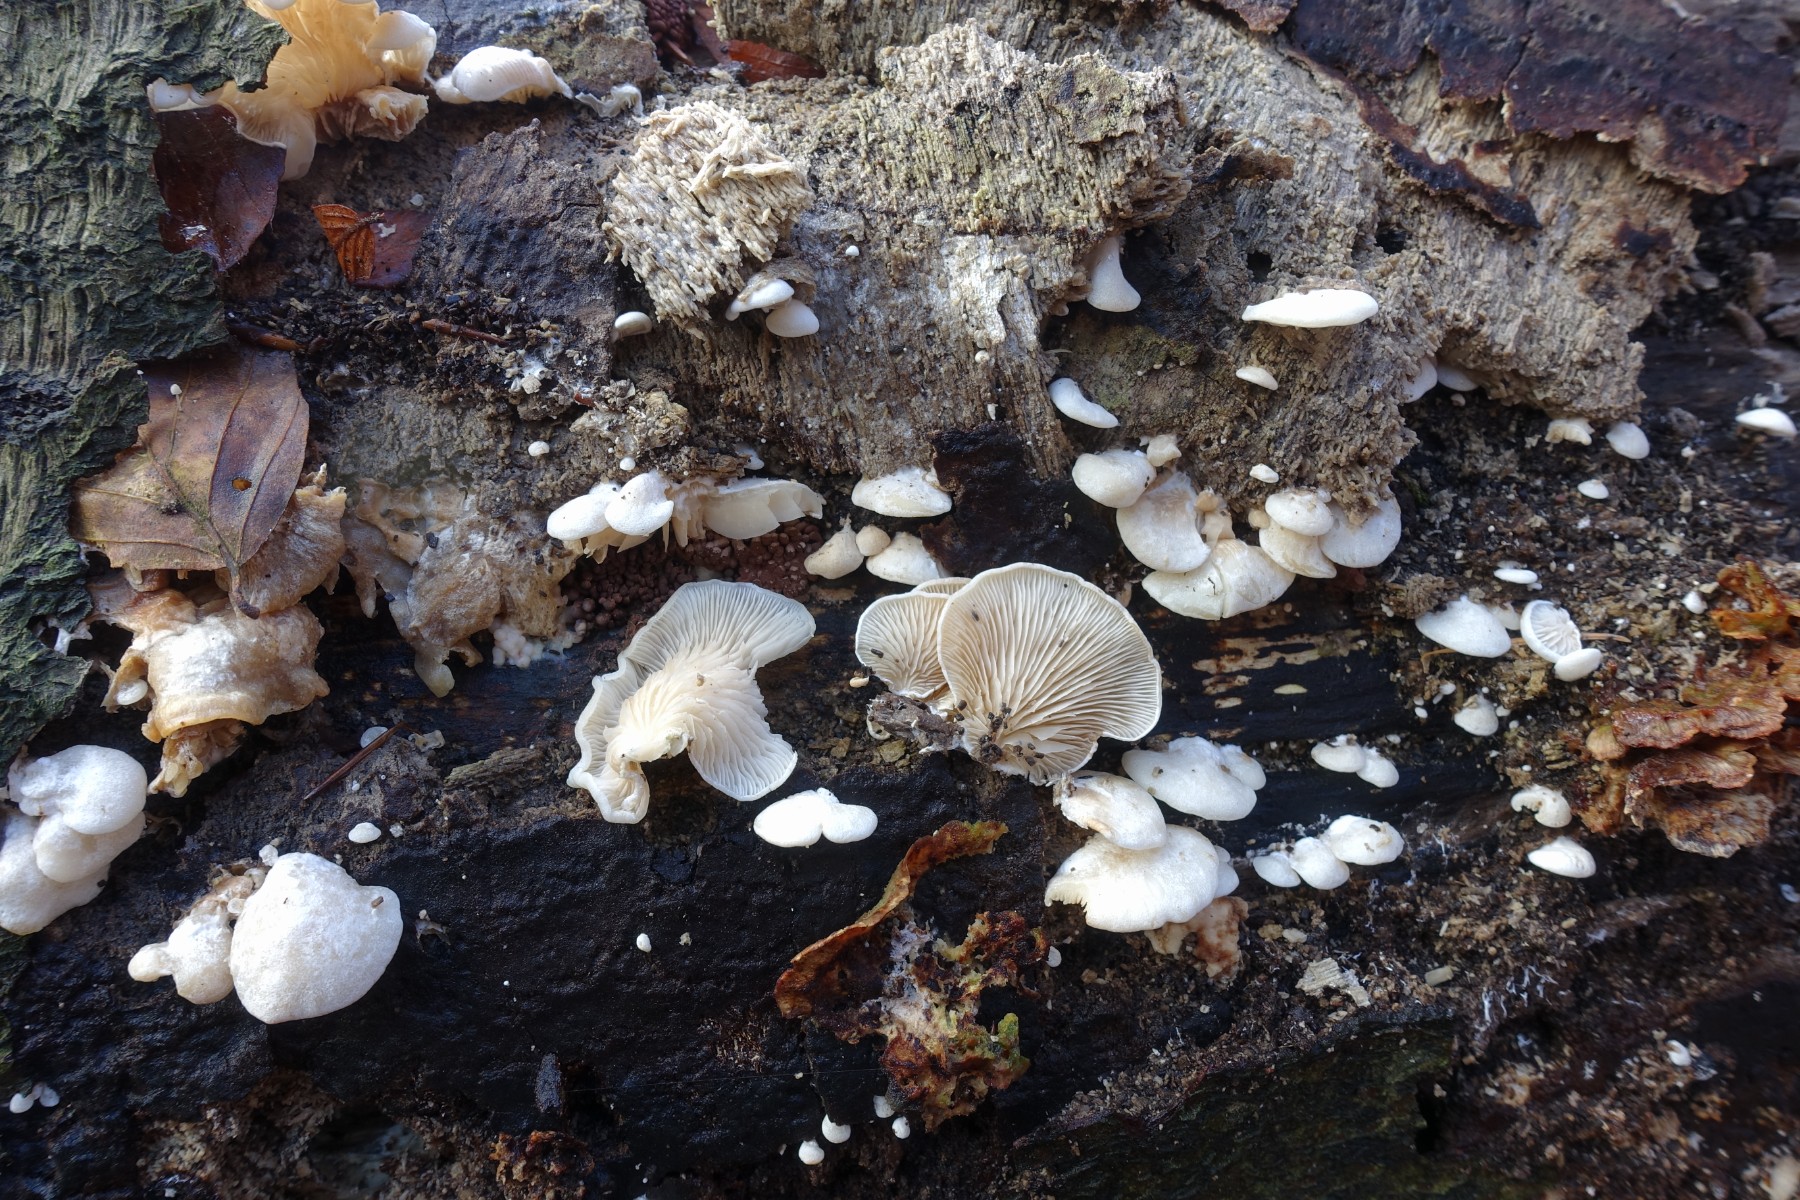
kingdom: Fungi
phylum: Basidiomycota
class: Agaricomycetes
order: Agaricales
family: Entolomataceae
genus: Clitopilus
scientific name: Clitopilus hobsonii
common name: Miller's oysterling
